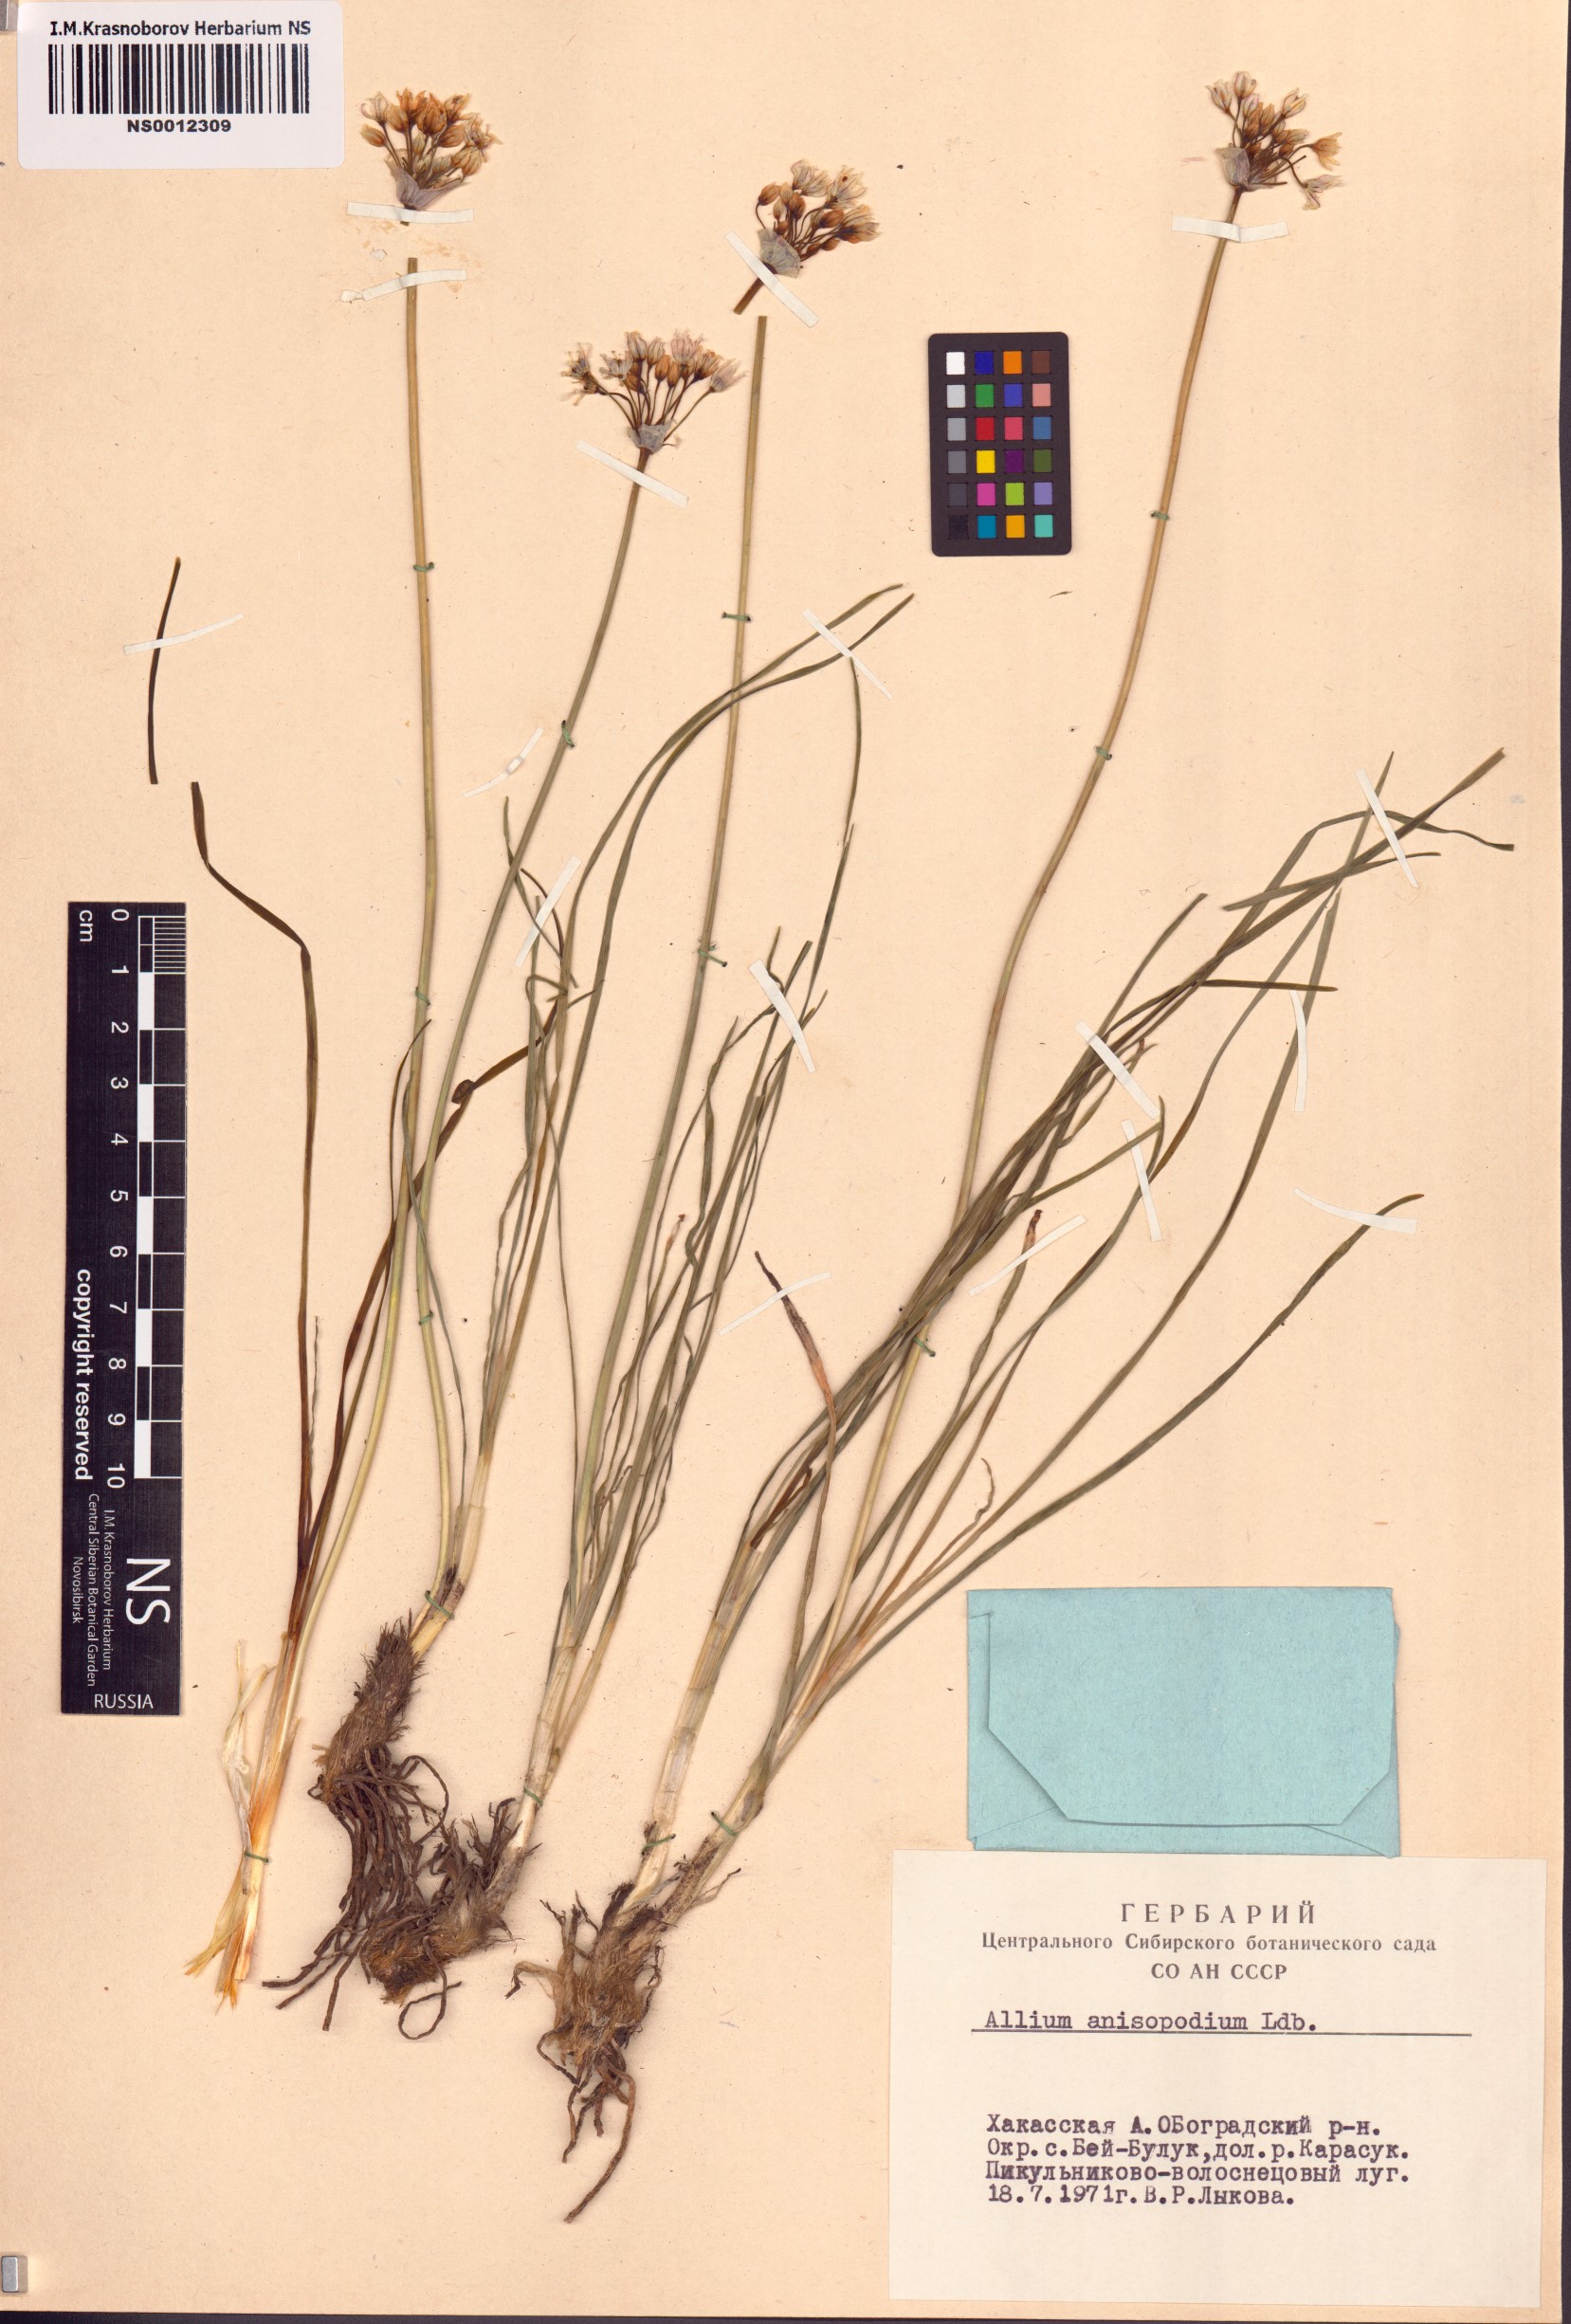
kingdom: Plantae
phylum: Tracheophyta
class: Liliopsida
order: Asparagales
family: Amaryllidaceae
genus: Allium
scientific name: Allium anisopodium
